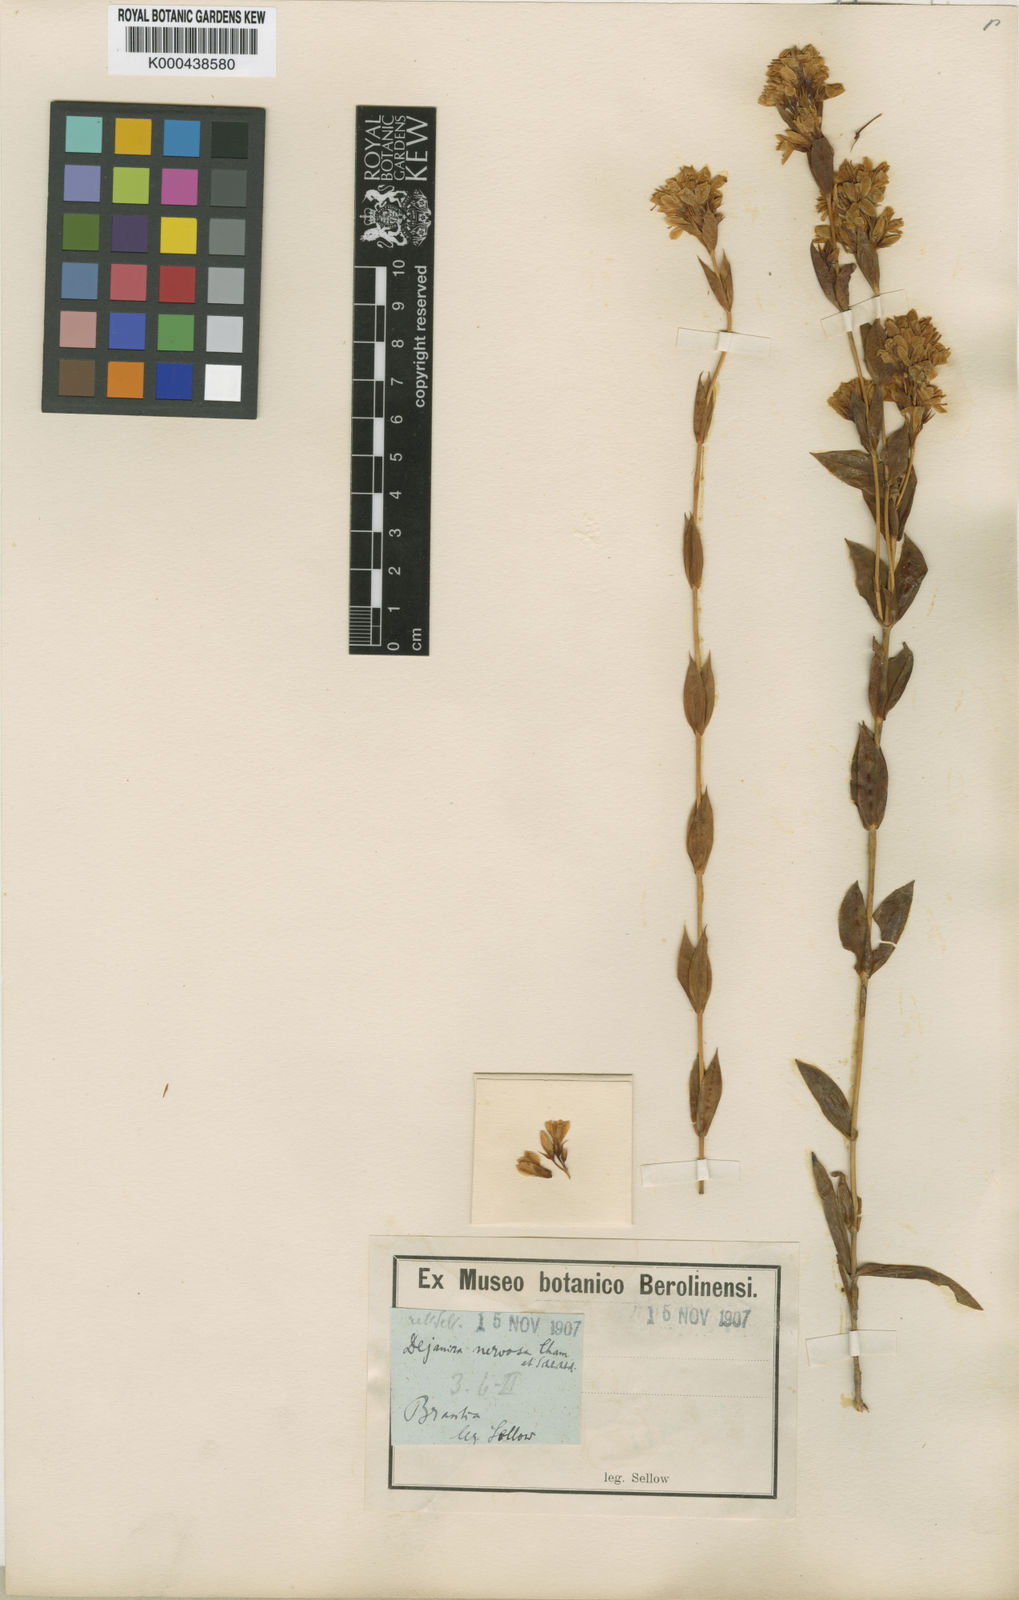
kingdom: Plantae
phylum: Tracheophyta
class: Magnoliopsida
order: Gentianales
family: Gentianaceae
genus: Deianira
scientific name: Deianira nervosa
